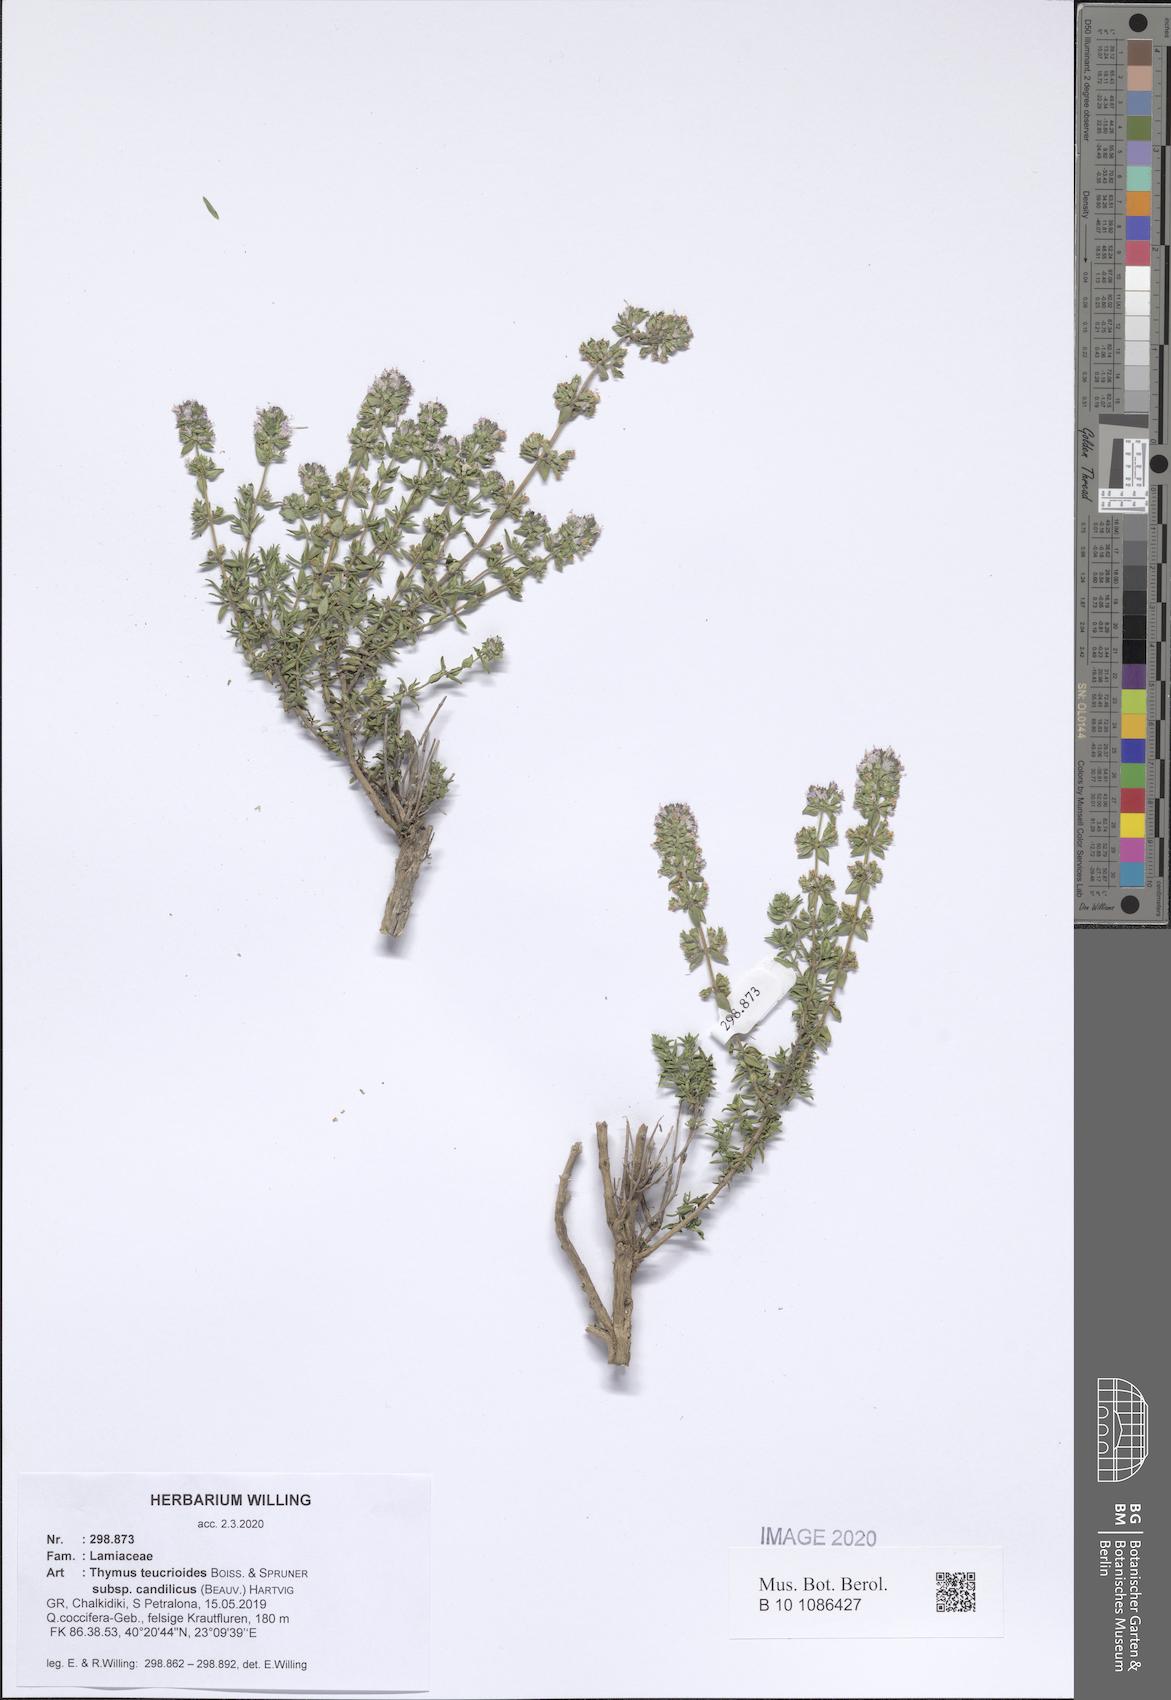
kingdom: Plantae
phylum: Tracheophyta
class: Magnoliopsida
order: Lamiales
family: Lamiaceae
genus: Thymus
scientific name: Thymus teucrioides
